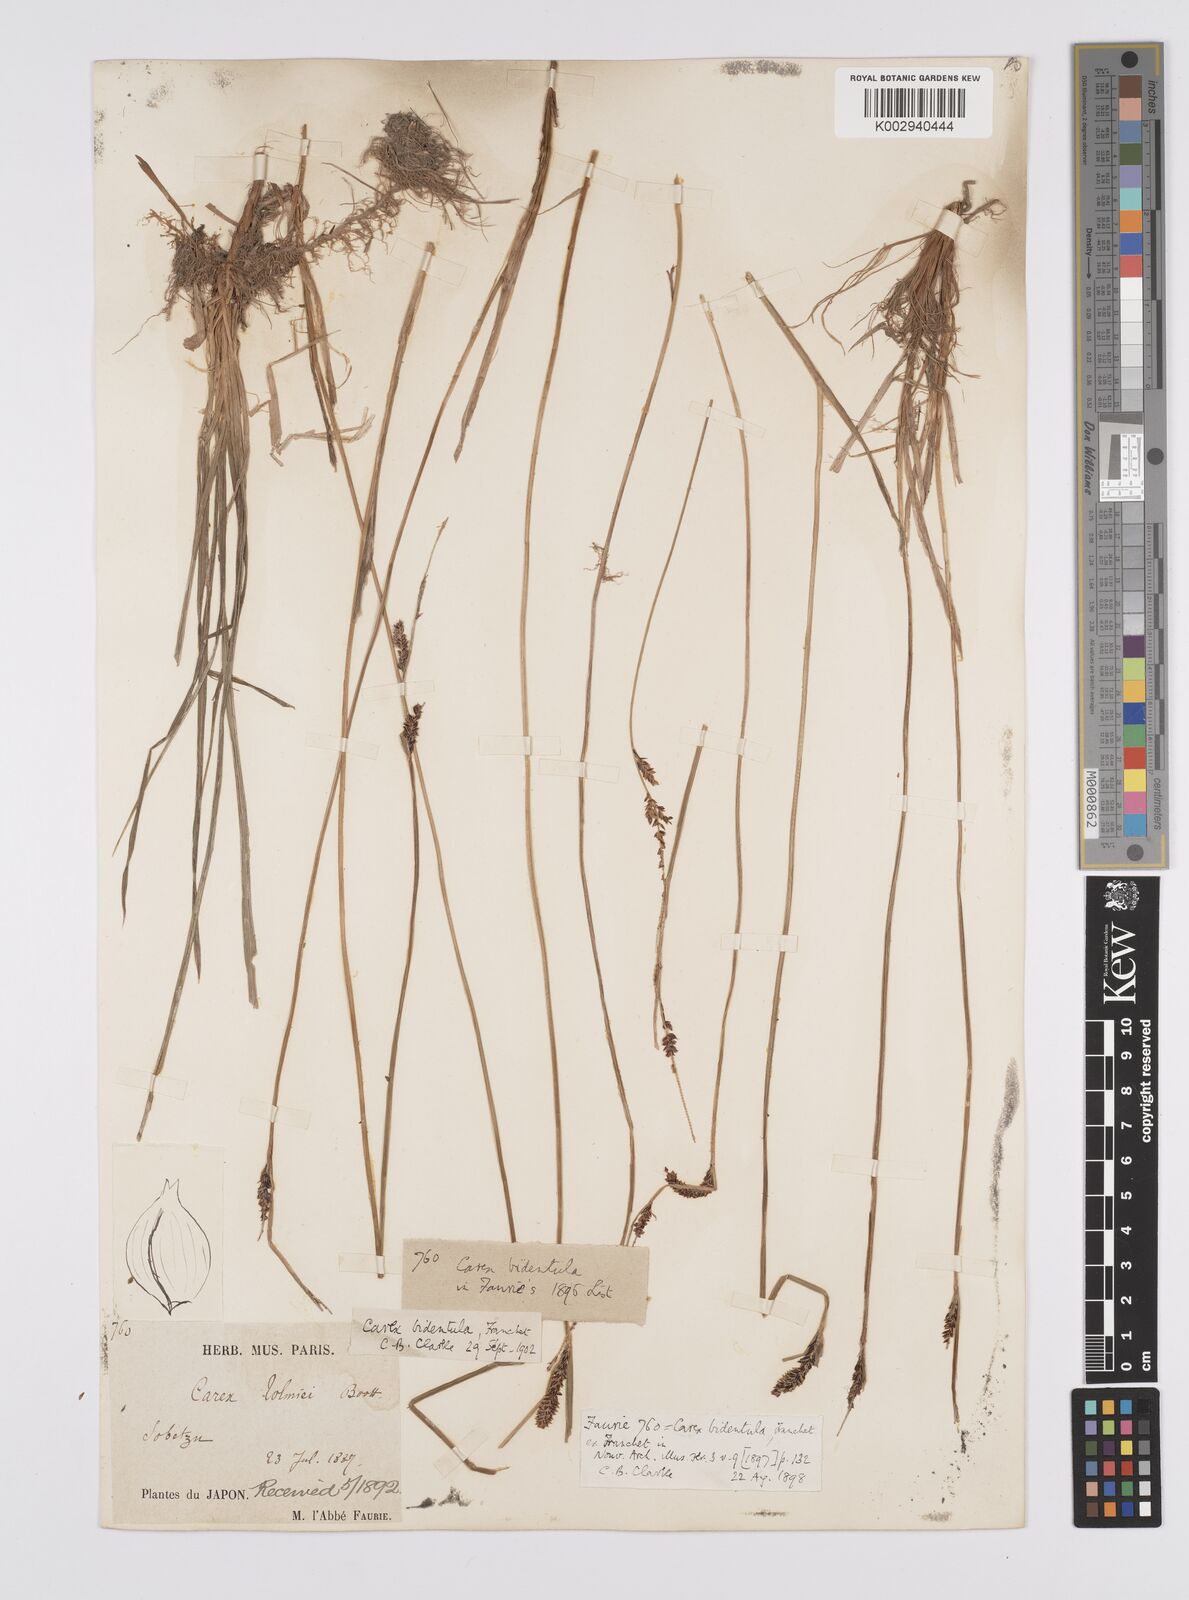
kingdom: Plantae
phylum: Tracheophyta
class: Liliopsida
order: Poales
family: Cyperaceae
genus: Carex
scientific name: Carex augustinowiczii
